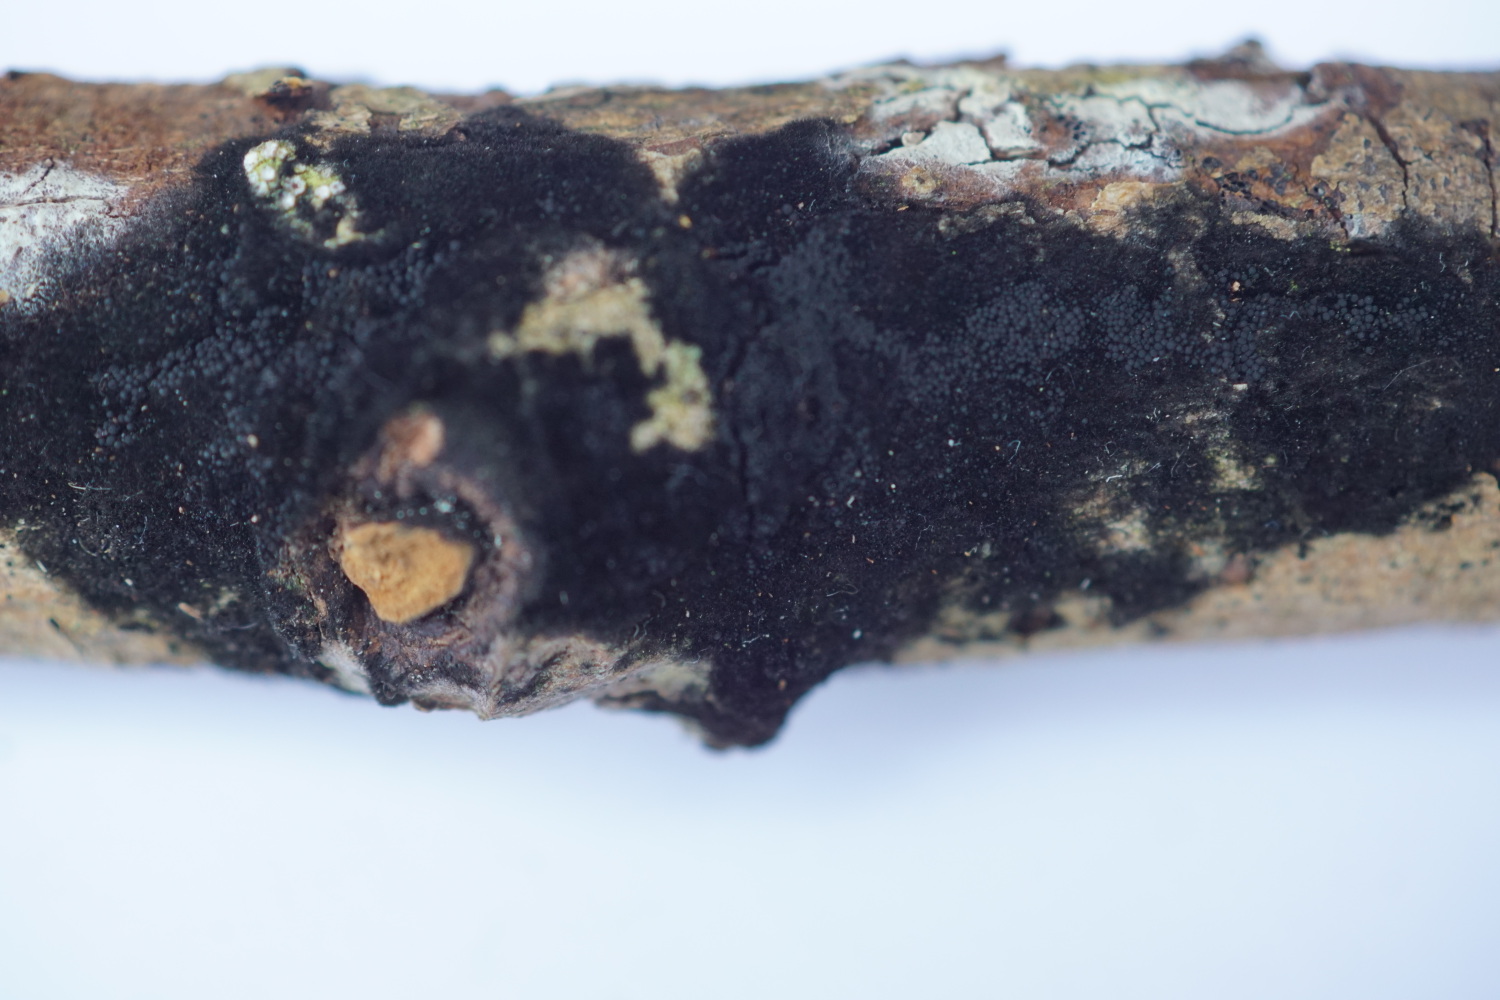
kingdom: Fungi
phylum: Ascomycota
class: Sordariomycetes
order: Coronophorales
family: Chaetosphaerellaceae
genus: Chaetosphaerella
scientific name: Chaetosphaerella phaeostroma
